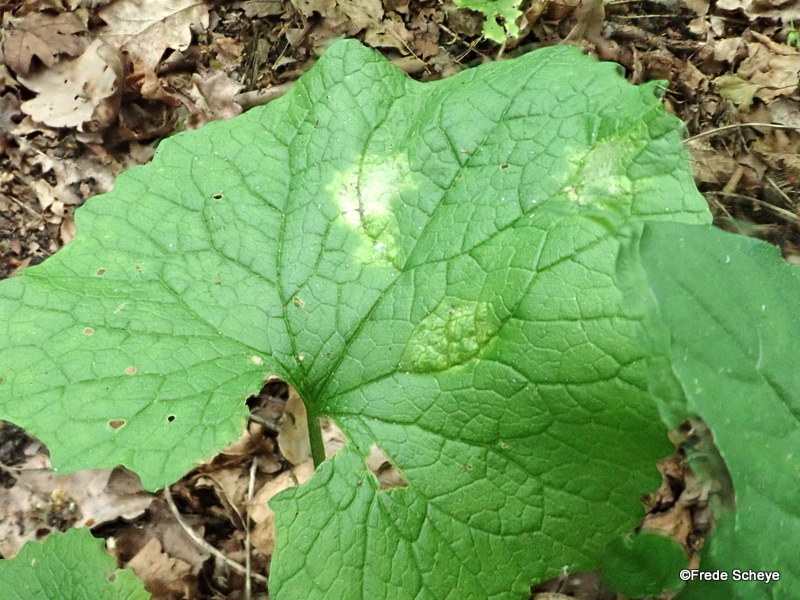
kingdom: Chromista
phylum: Oomycota
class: Peronosporea
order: Peronosporales
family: Peronosporaceae
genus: Hyaloperonospora
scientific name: Hyaloperonospora niessliana
